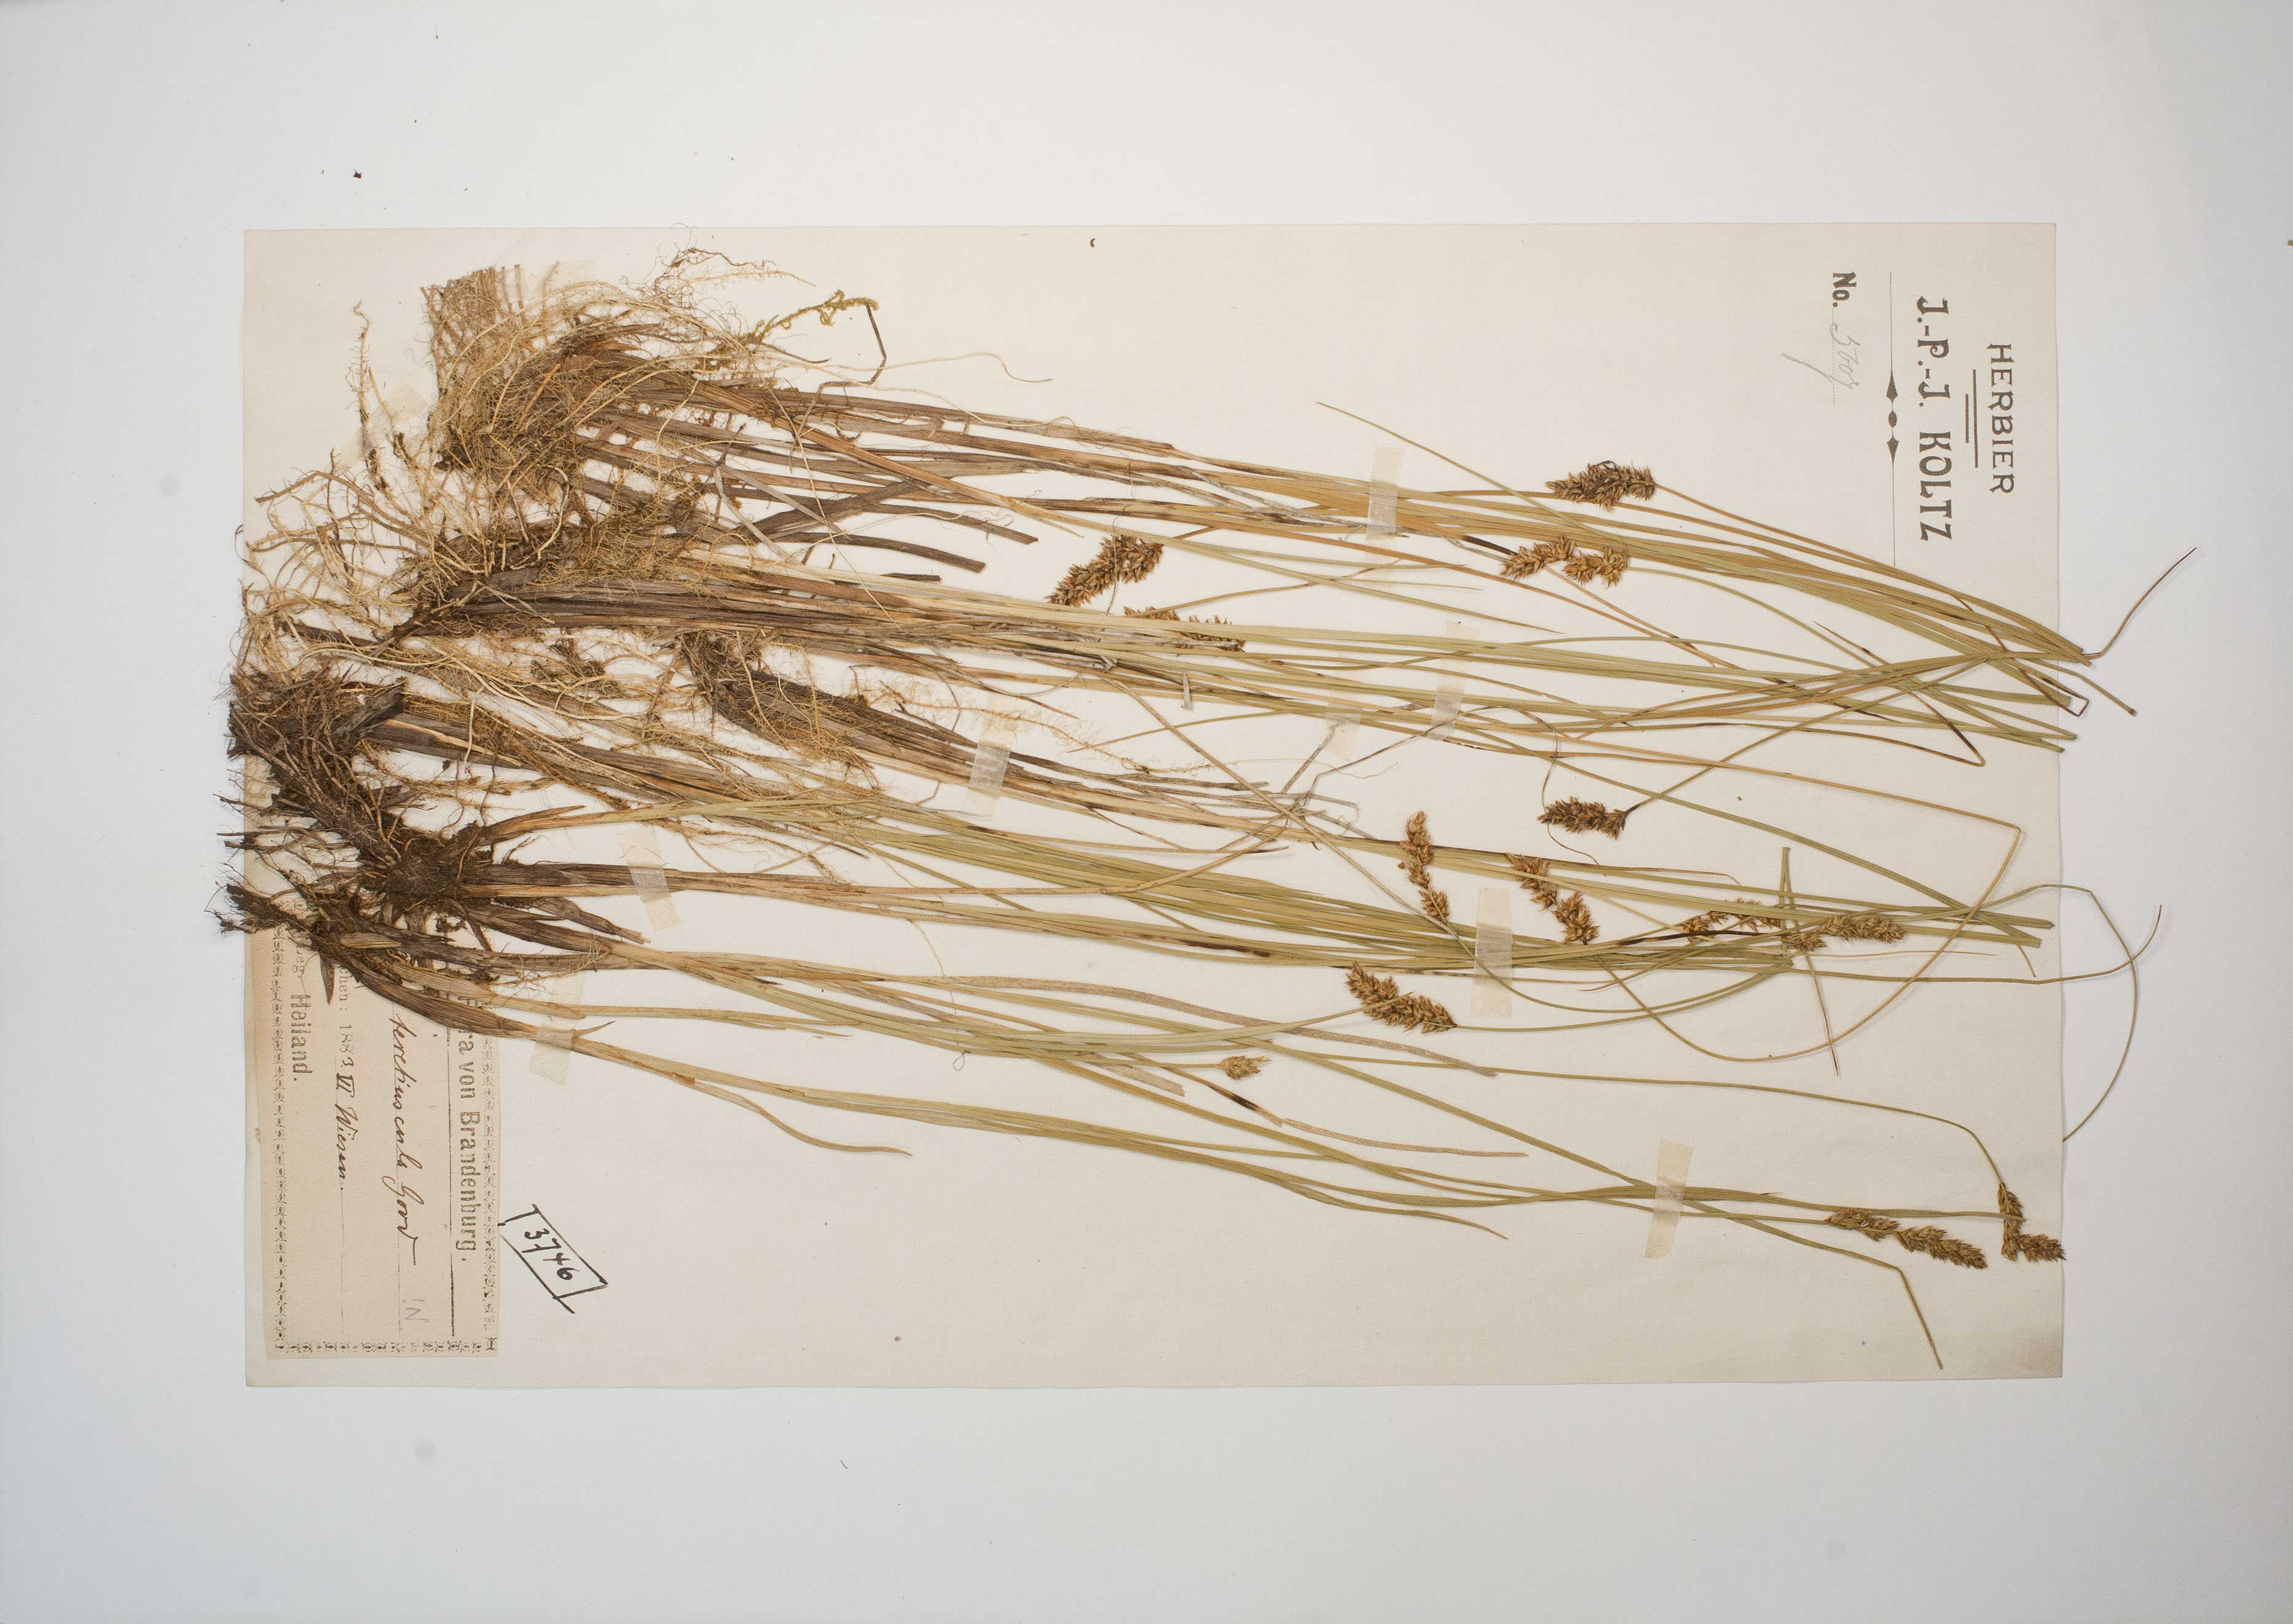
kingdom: Plantae
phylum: Tracheophyta
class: Liliopsida
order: Poales
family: Cyperaceae
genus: Carex
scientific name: Carex diandra
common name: Lesser tussock-sedge
